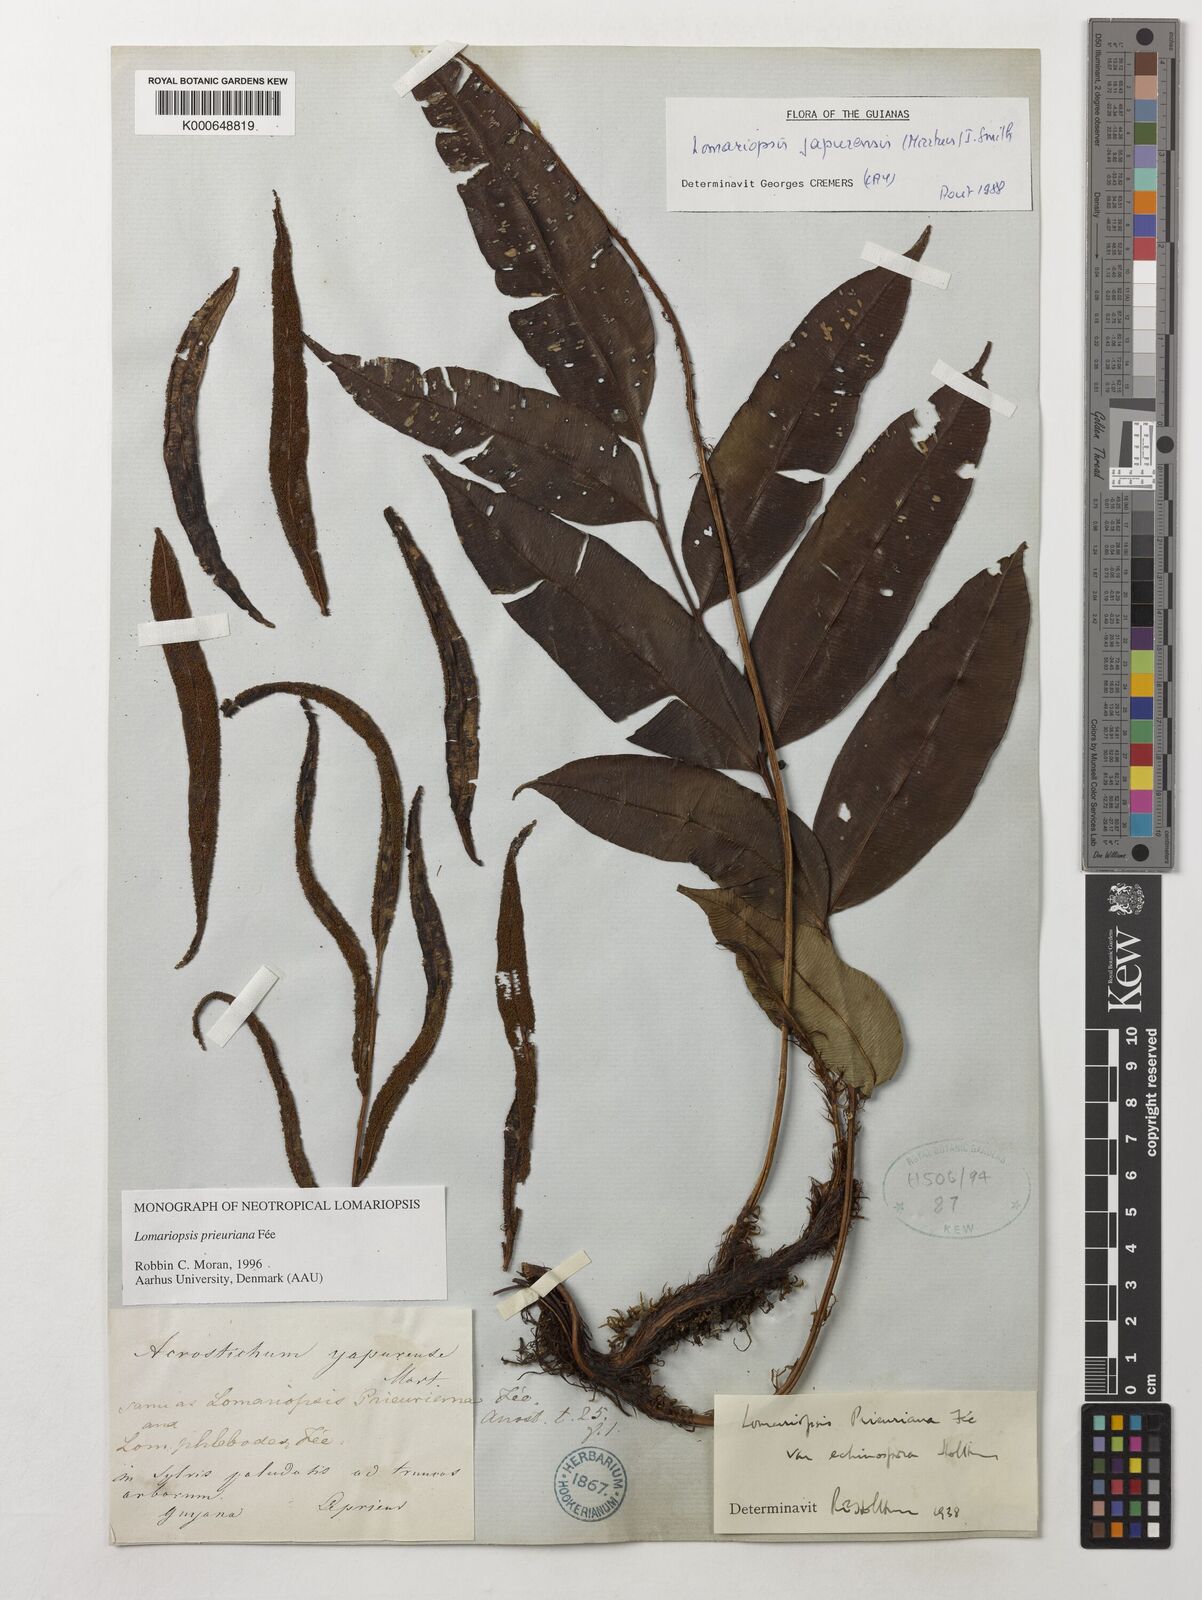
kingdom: Plantae
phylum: Tracheophyta
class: Polypodiopsida
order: Polypodiales
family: Lomariopsidaceae
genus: Lomariopsis
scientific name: Lomariopsis prieuriana
